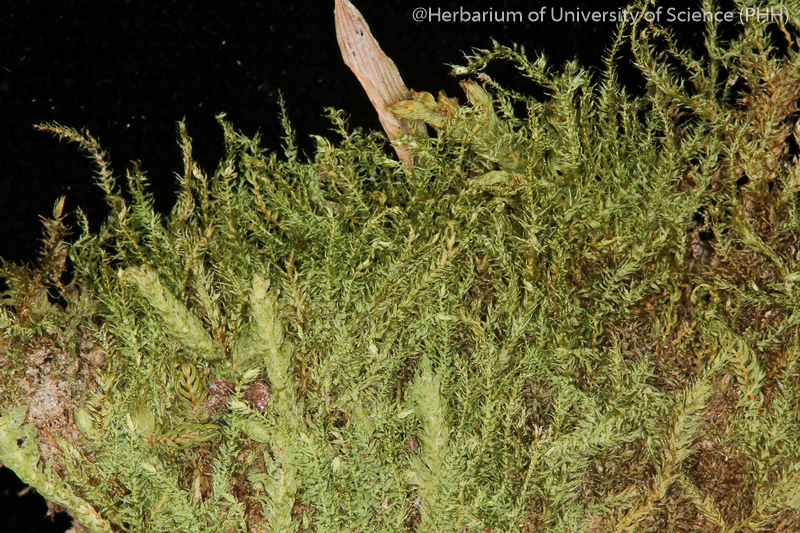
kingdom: Plantae
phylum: Bryophyta
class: Bryopsida
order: Hypnales
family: Hypnaceae
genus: Ectropothecium
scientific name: Ectropothecium perscabrum
